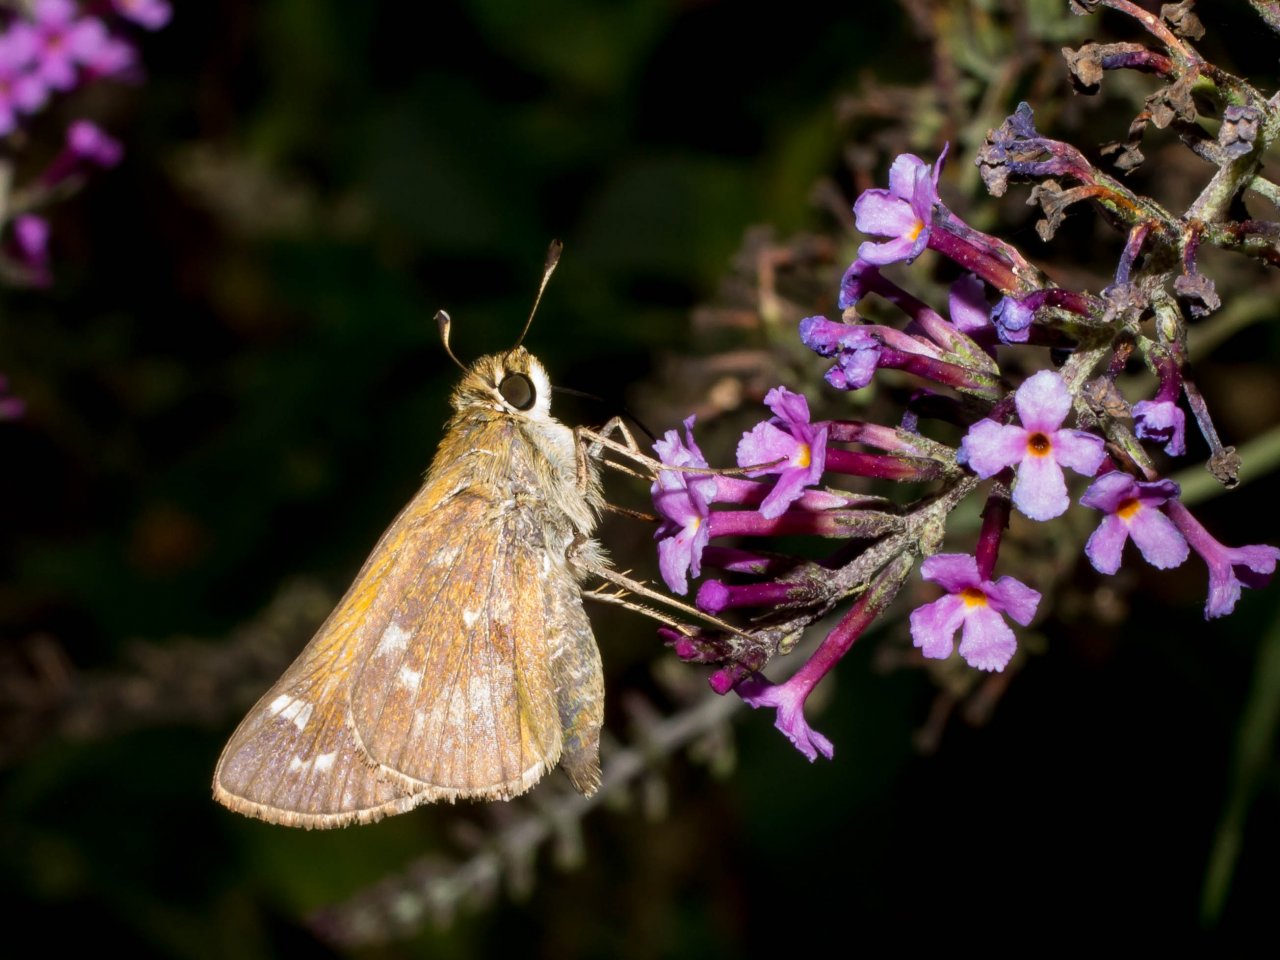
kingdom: Animalia
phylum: Arthropoda
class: Insecta
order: Lepidoptera
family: Hesperiidae
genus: Atalopedes
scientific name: Atalopedes campestris
